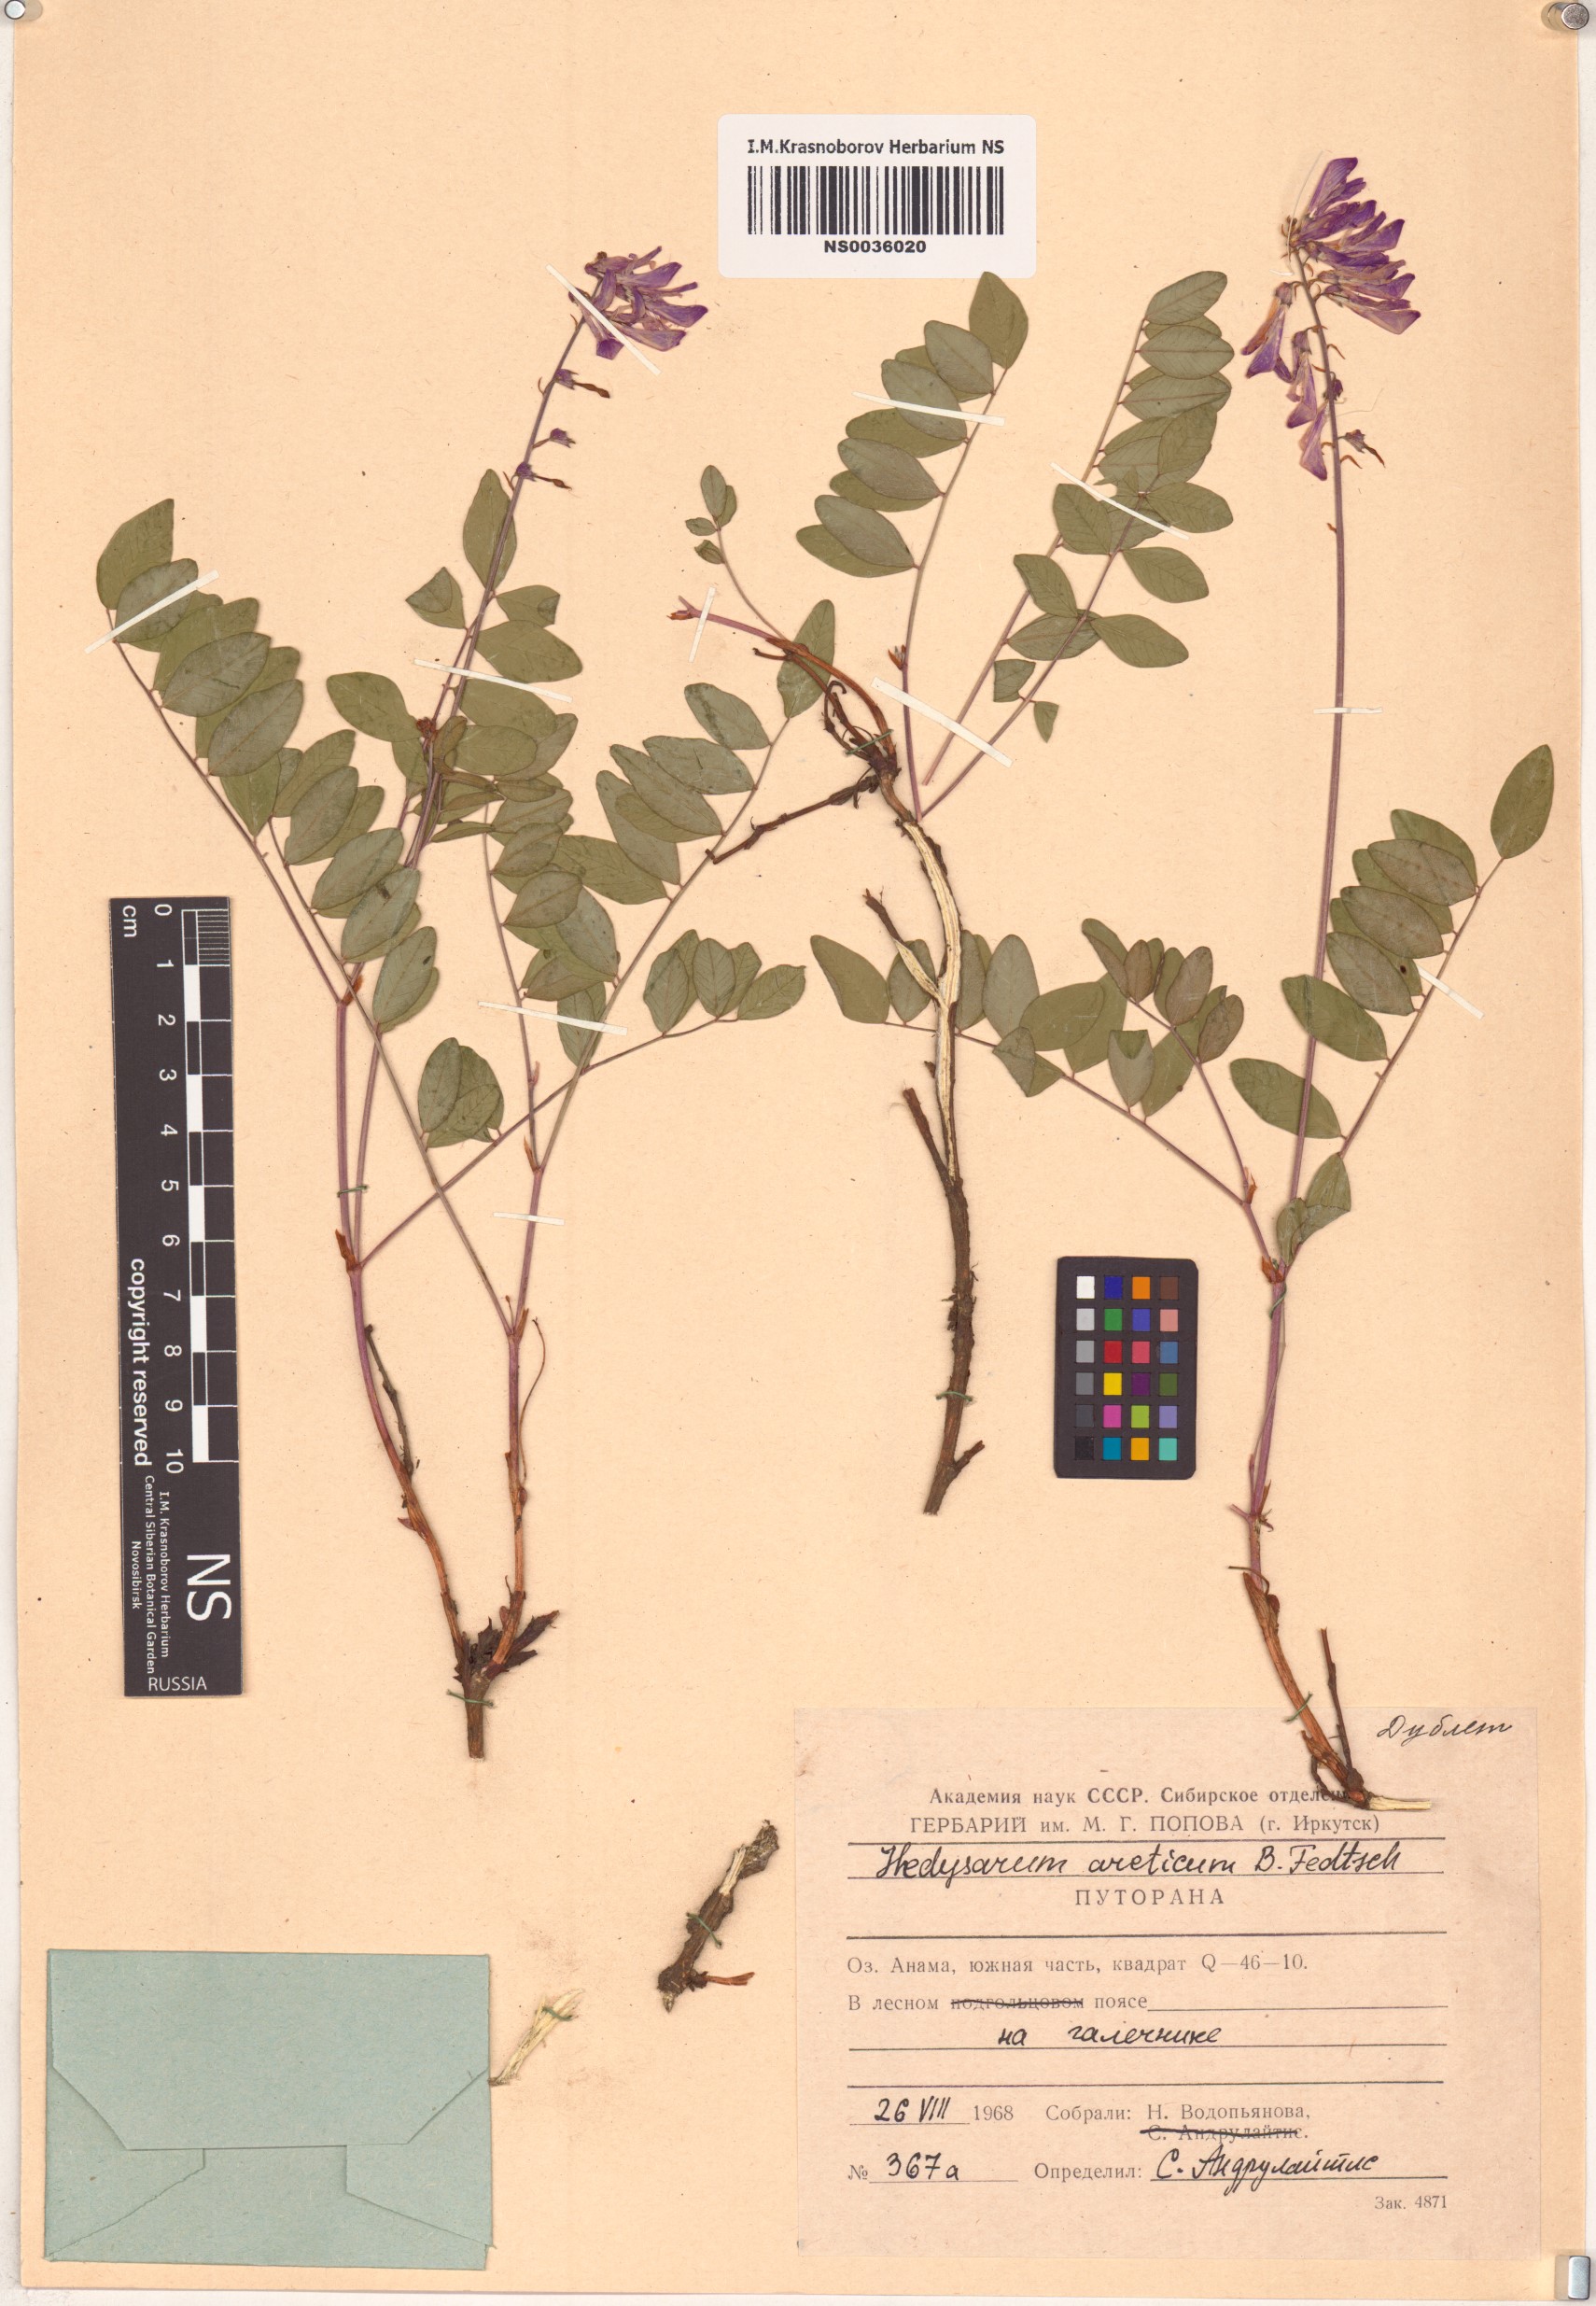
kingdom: Plantae
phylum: Tracheophyta
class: Magnoliopsida
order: Fabales
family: Fabaceae
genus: Hedysarum
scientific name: Hedysarum hedysaroides
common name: Alpine french-honeysuckle
